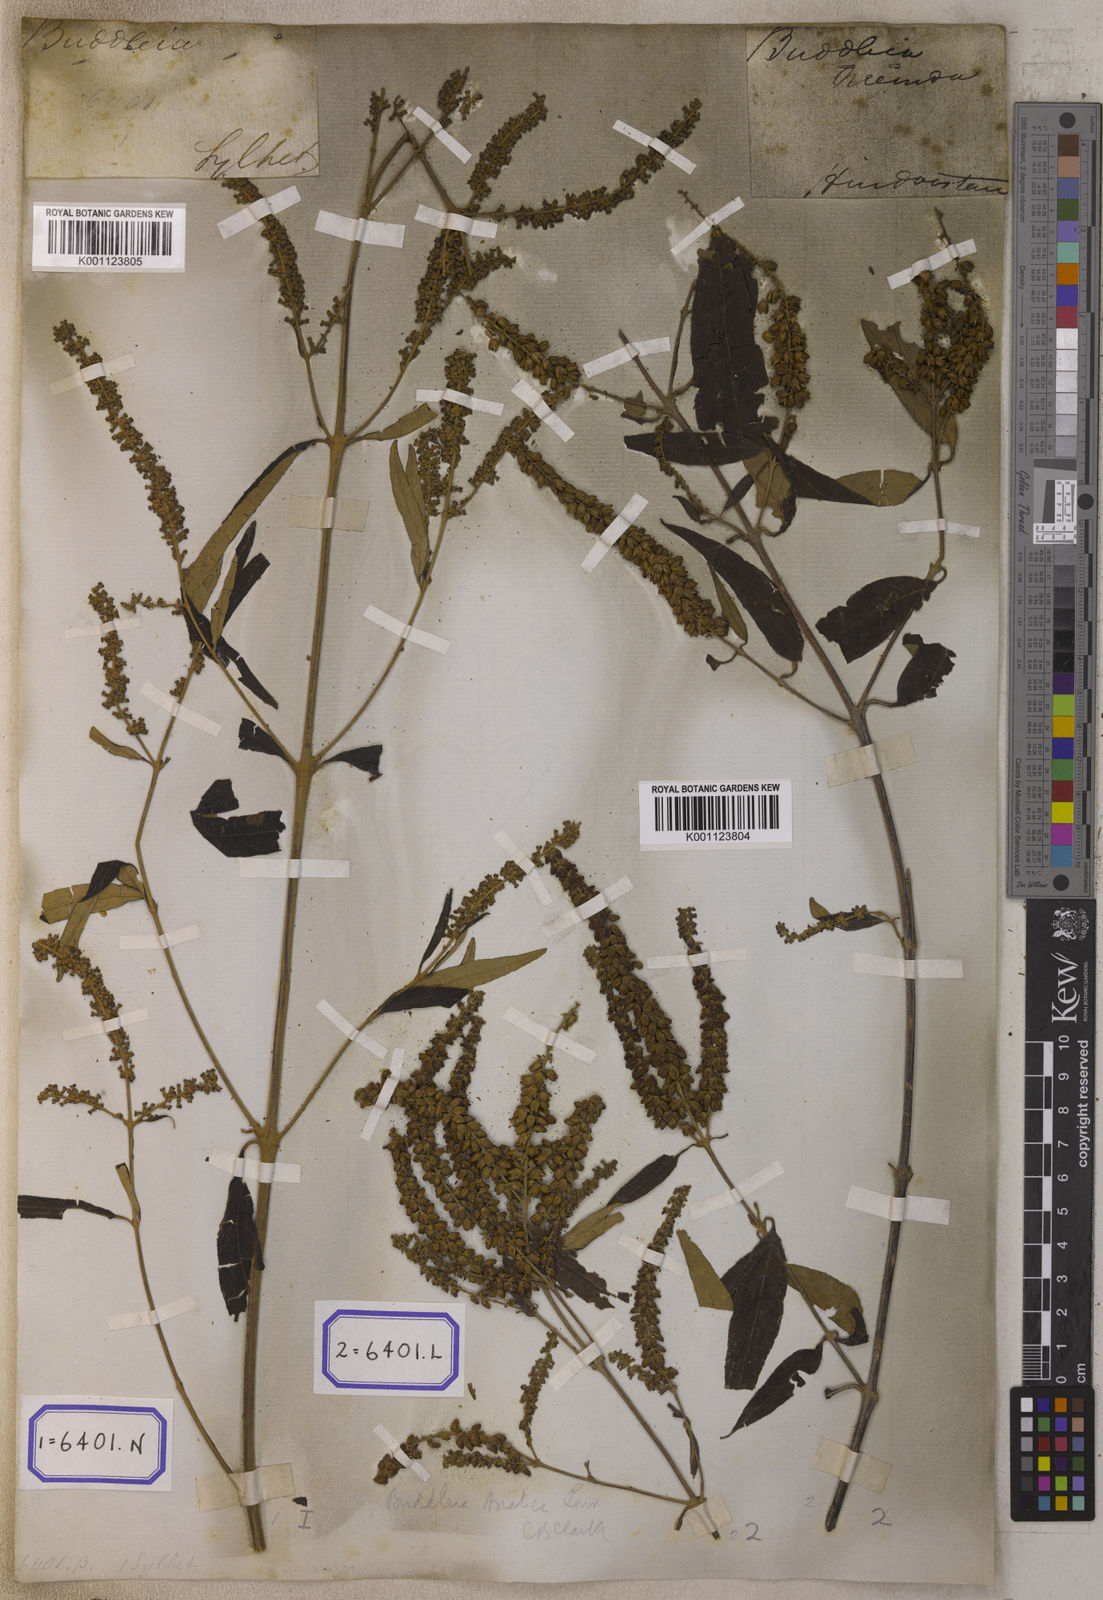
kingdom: Plantae
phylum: Tracheophyta
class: Magnoliopsida
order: Lamiales
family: Scrophulariaceae
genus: Buddleja
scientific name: Buddleja
